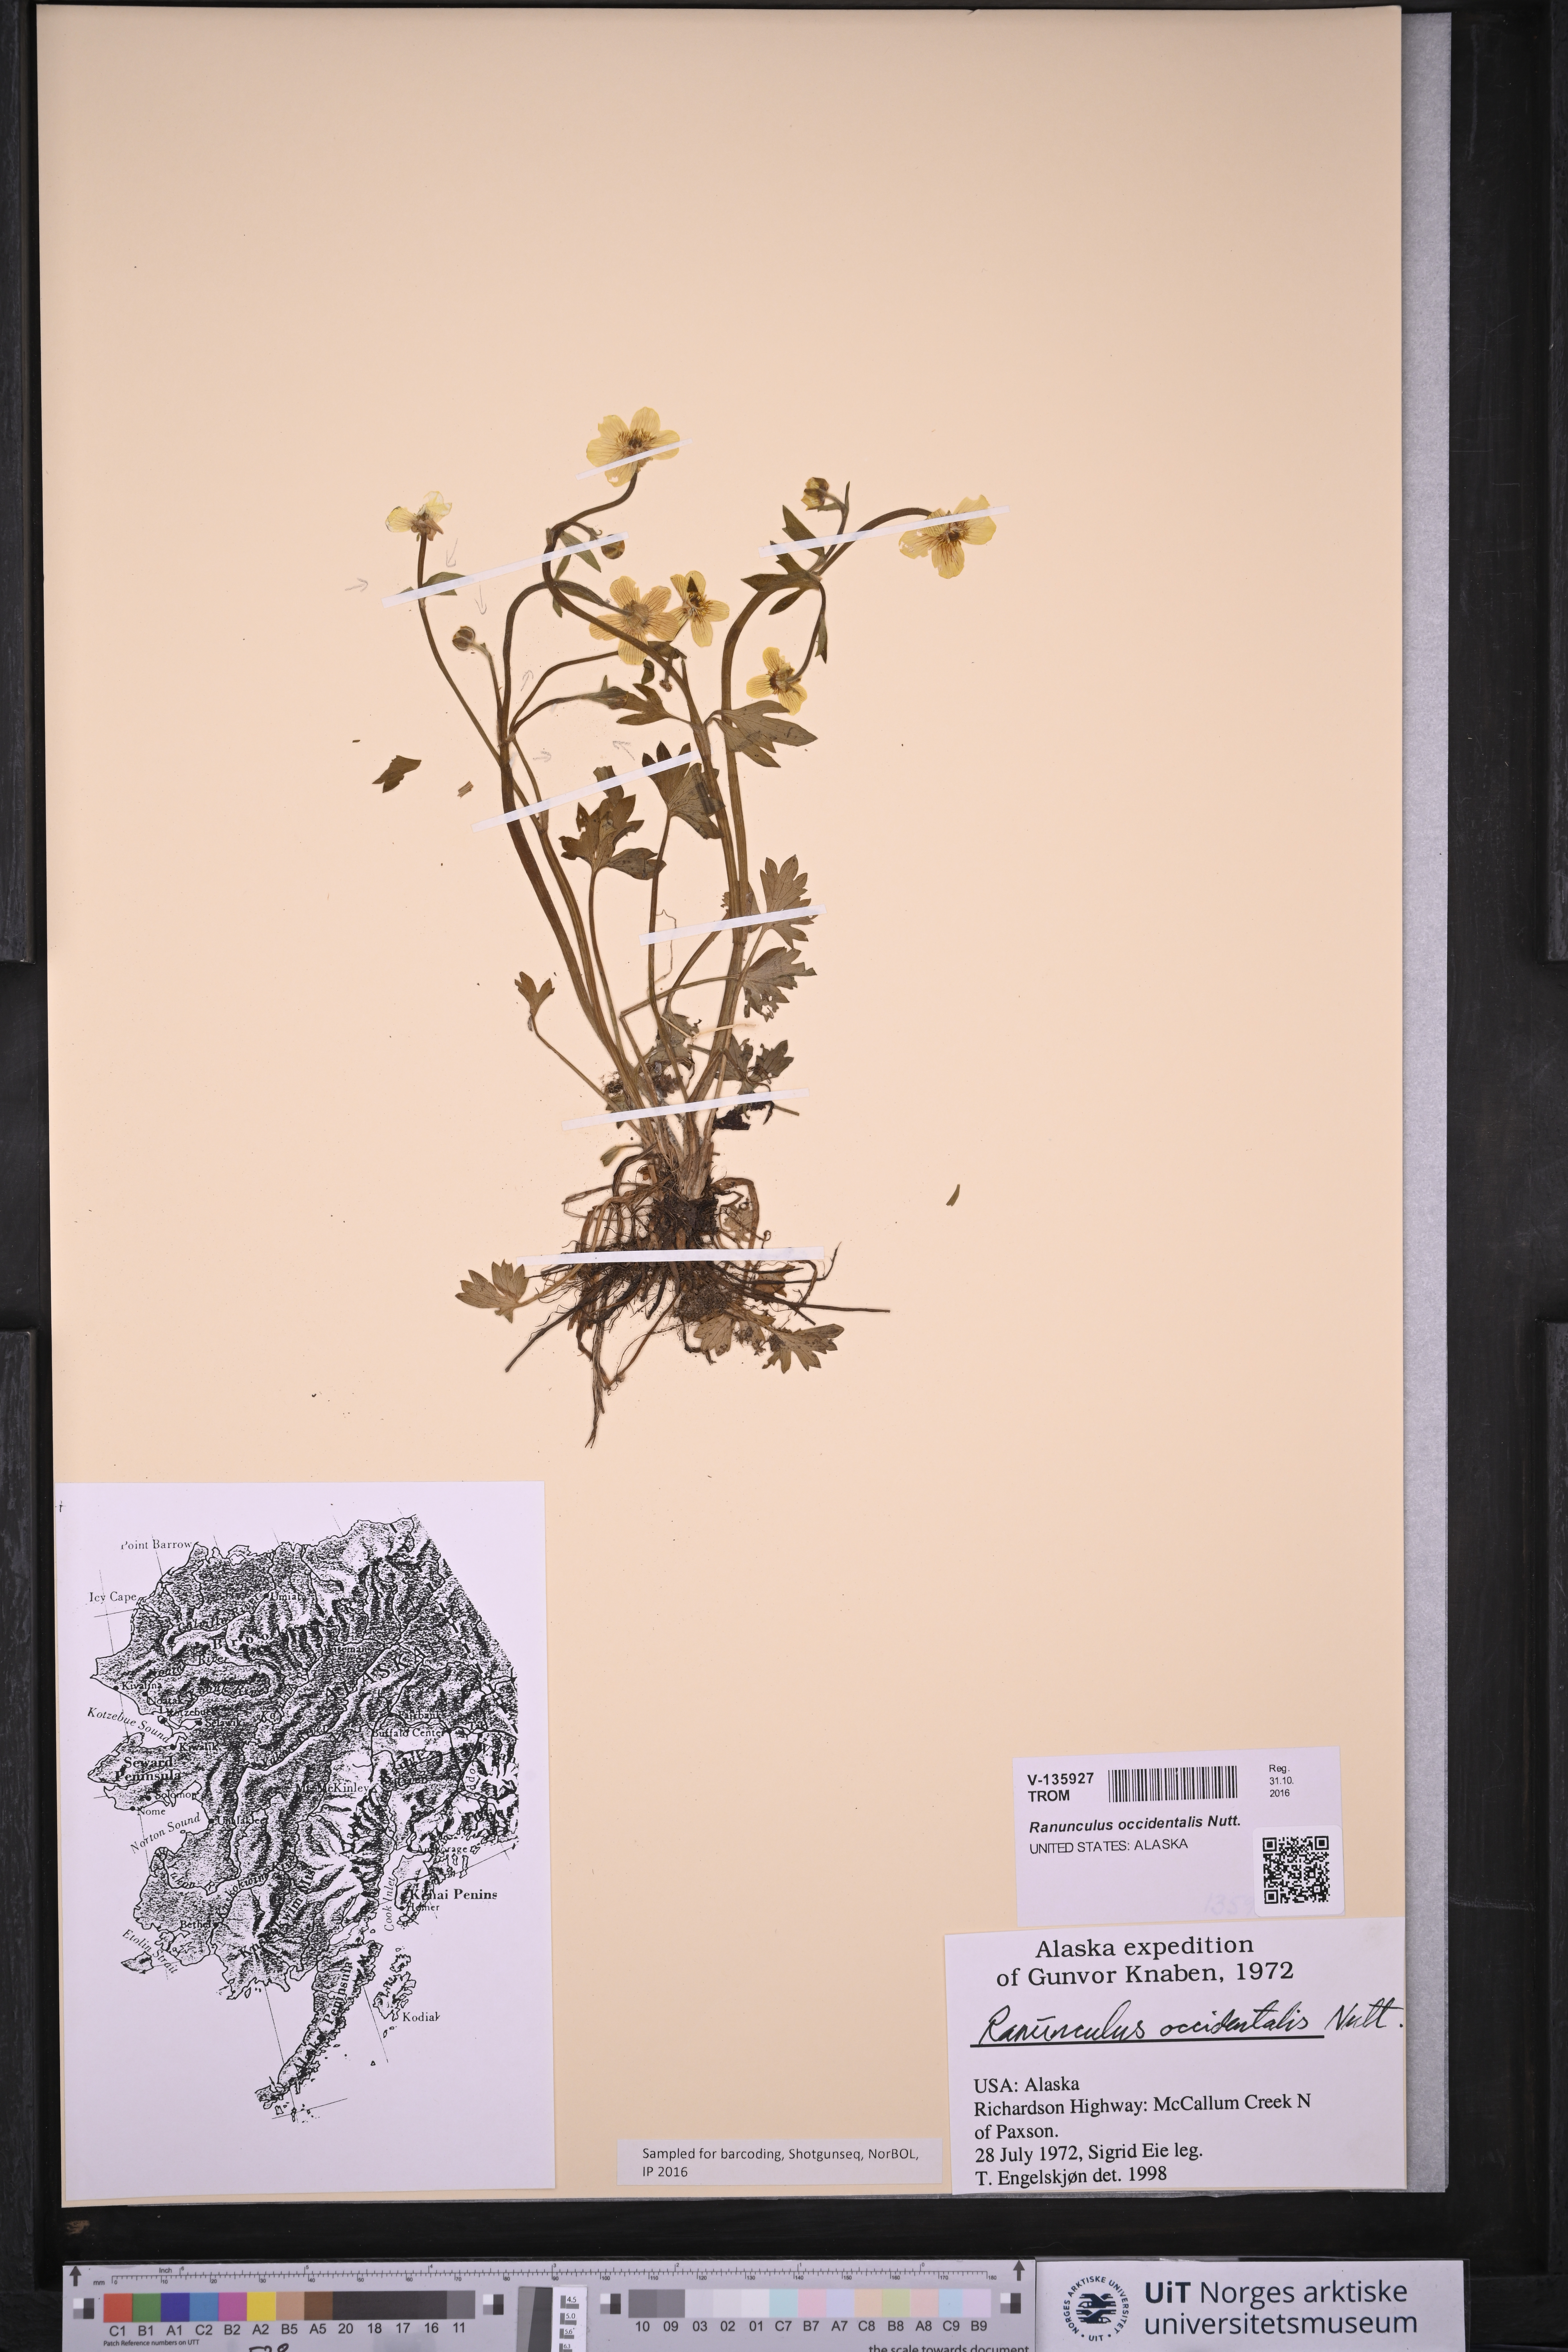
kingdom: Plantae
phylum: Tracheophyta
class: Magnoliopsida
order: Ranunculales
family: Ranunculaceae
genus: Ranunculus
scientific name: Ranunculus occidentalis
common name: Western buttercup
